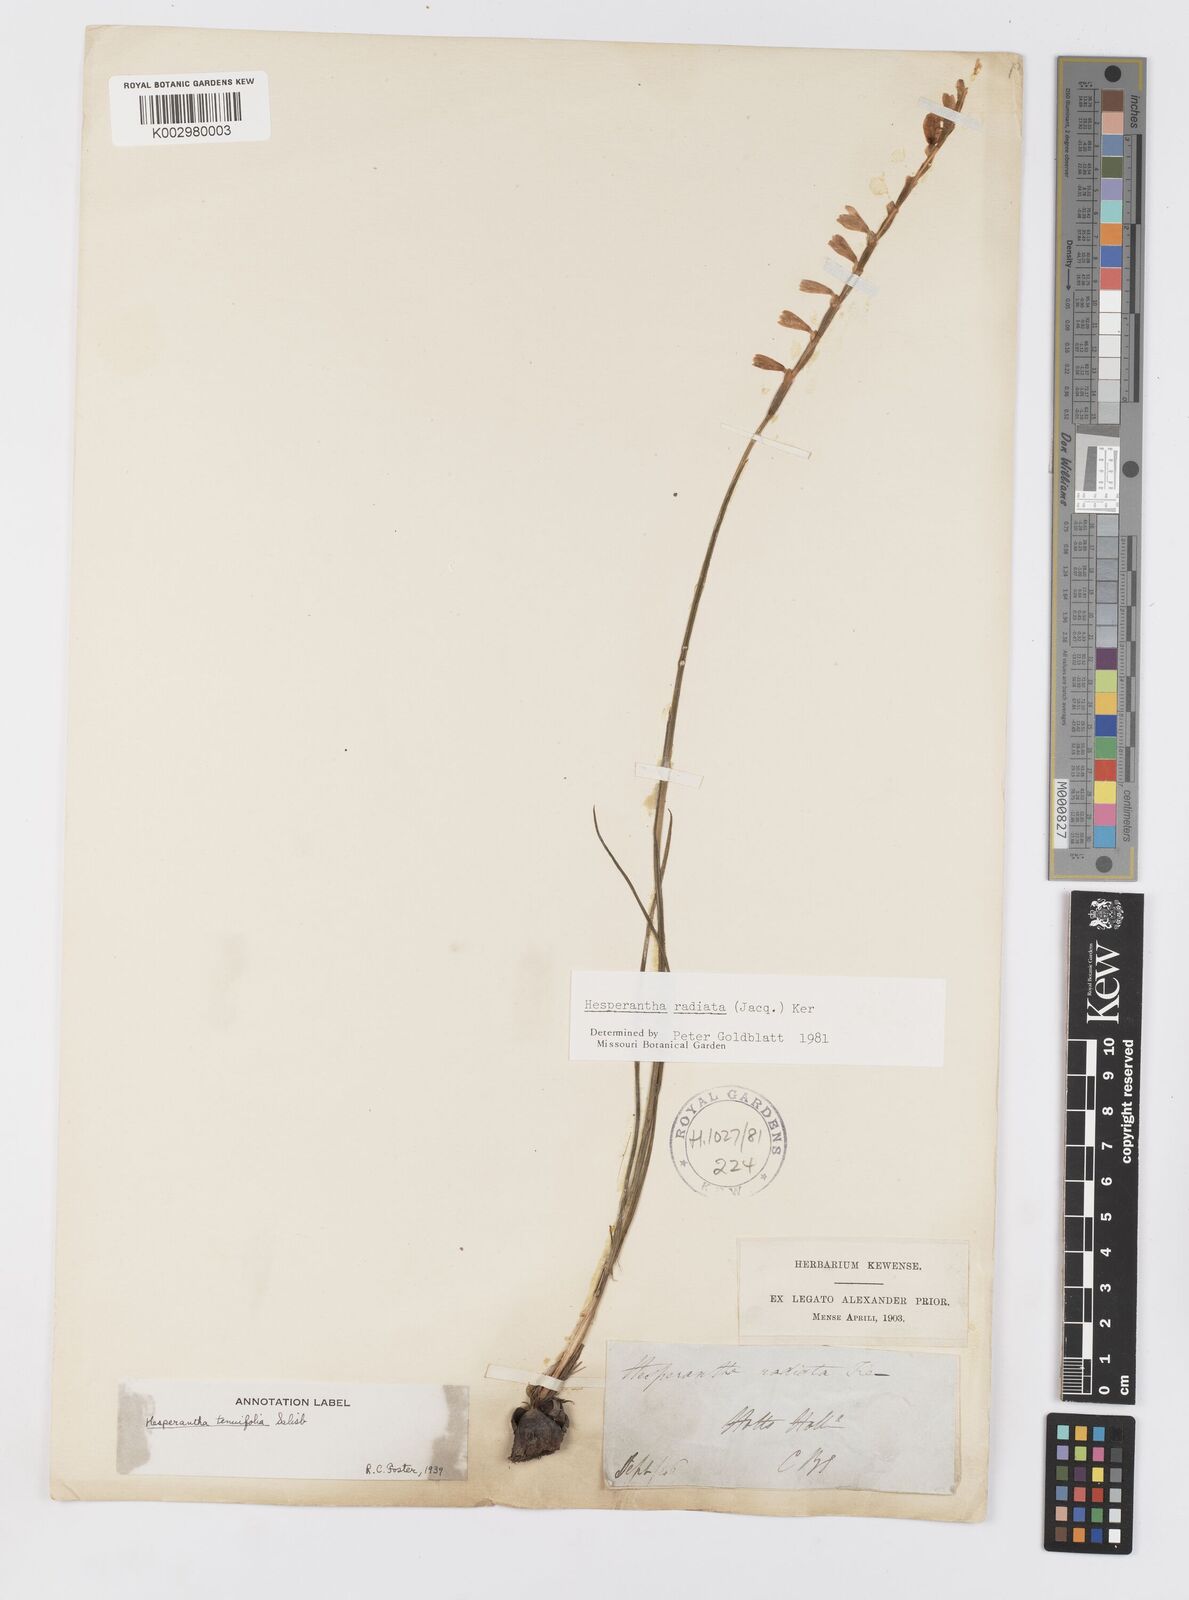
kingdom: Plantae
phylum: Tracheophyta
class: Liliopsida
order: Asparagales
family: Iridaceae
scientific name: Iridaceae
